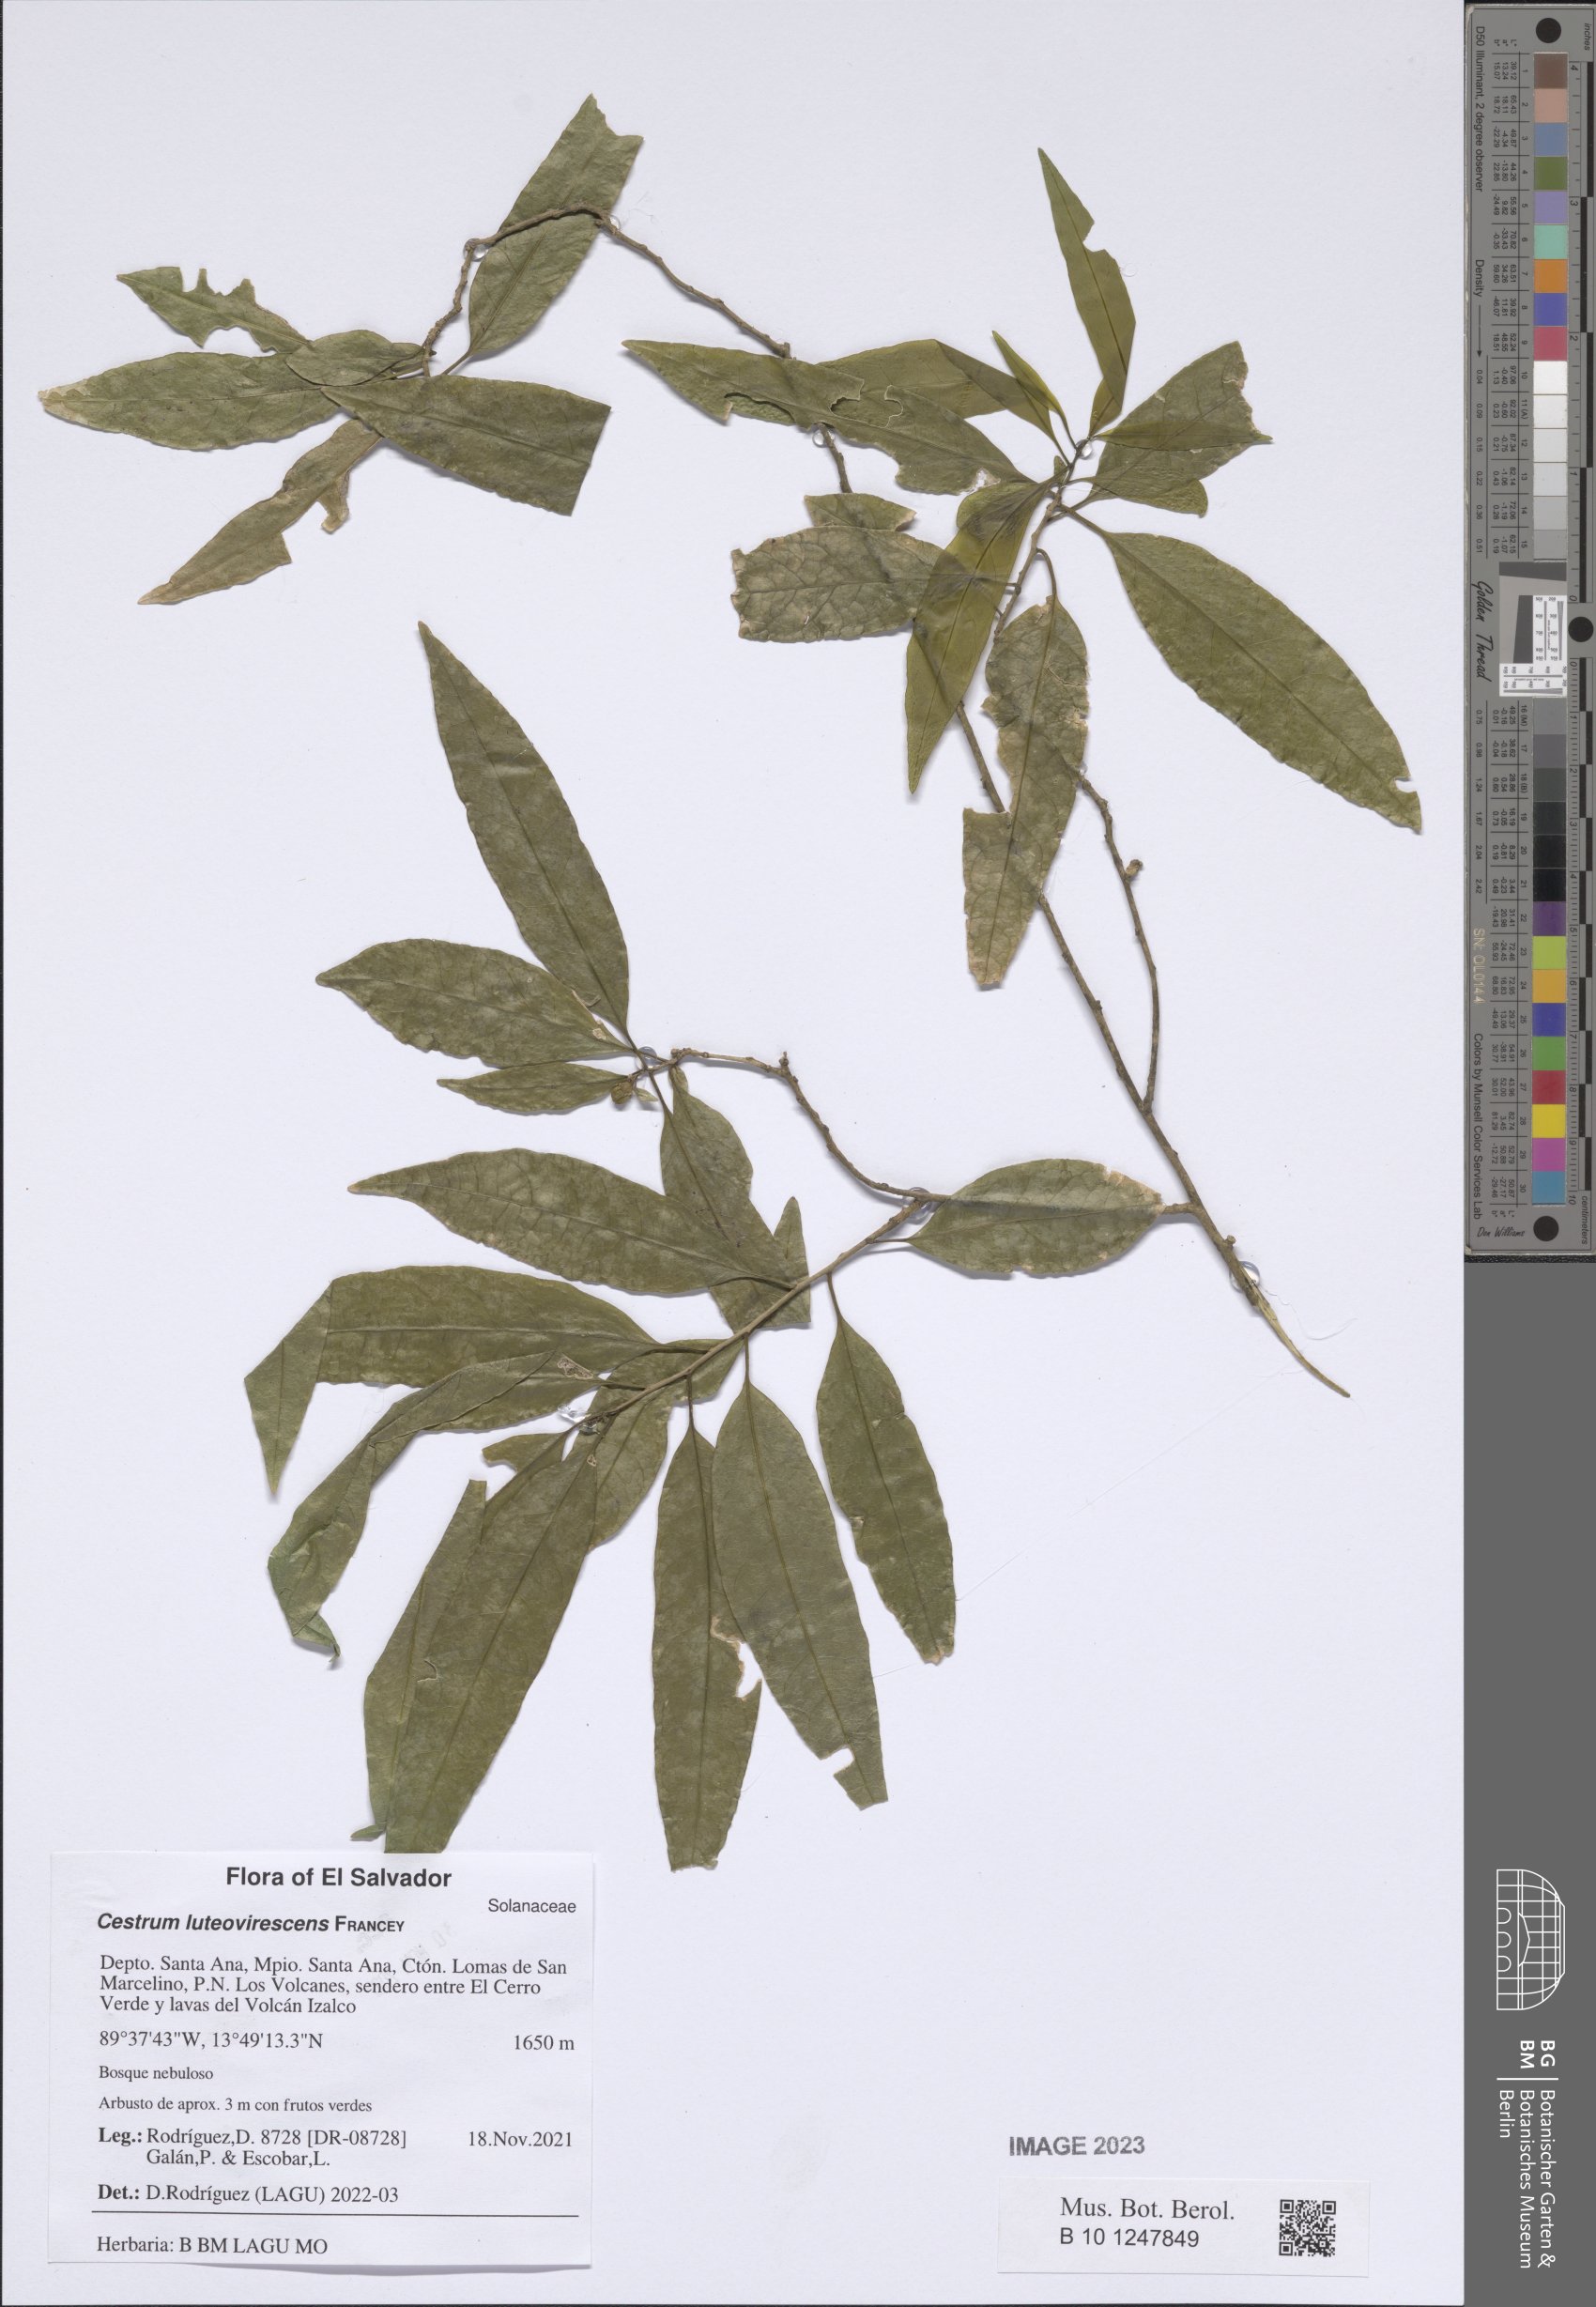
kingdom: Plantae
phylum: Tracheophyta
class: Magnoliopsida
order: Solanales
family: Solanaceae
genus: Cestrum
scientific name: Cestrum luteovirescens
